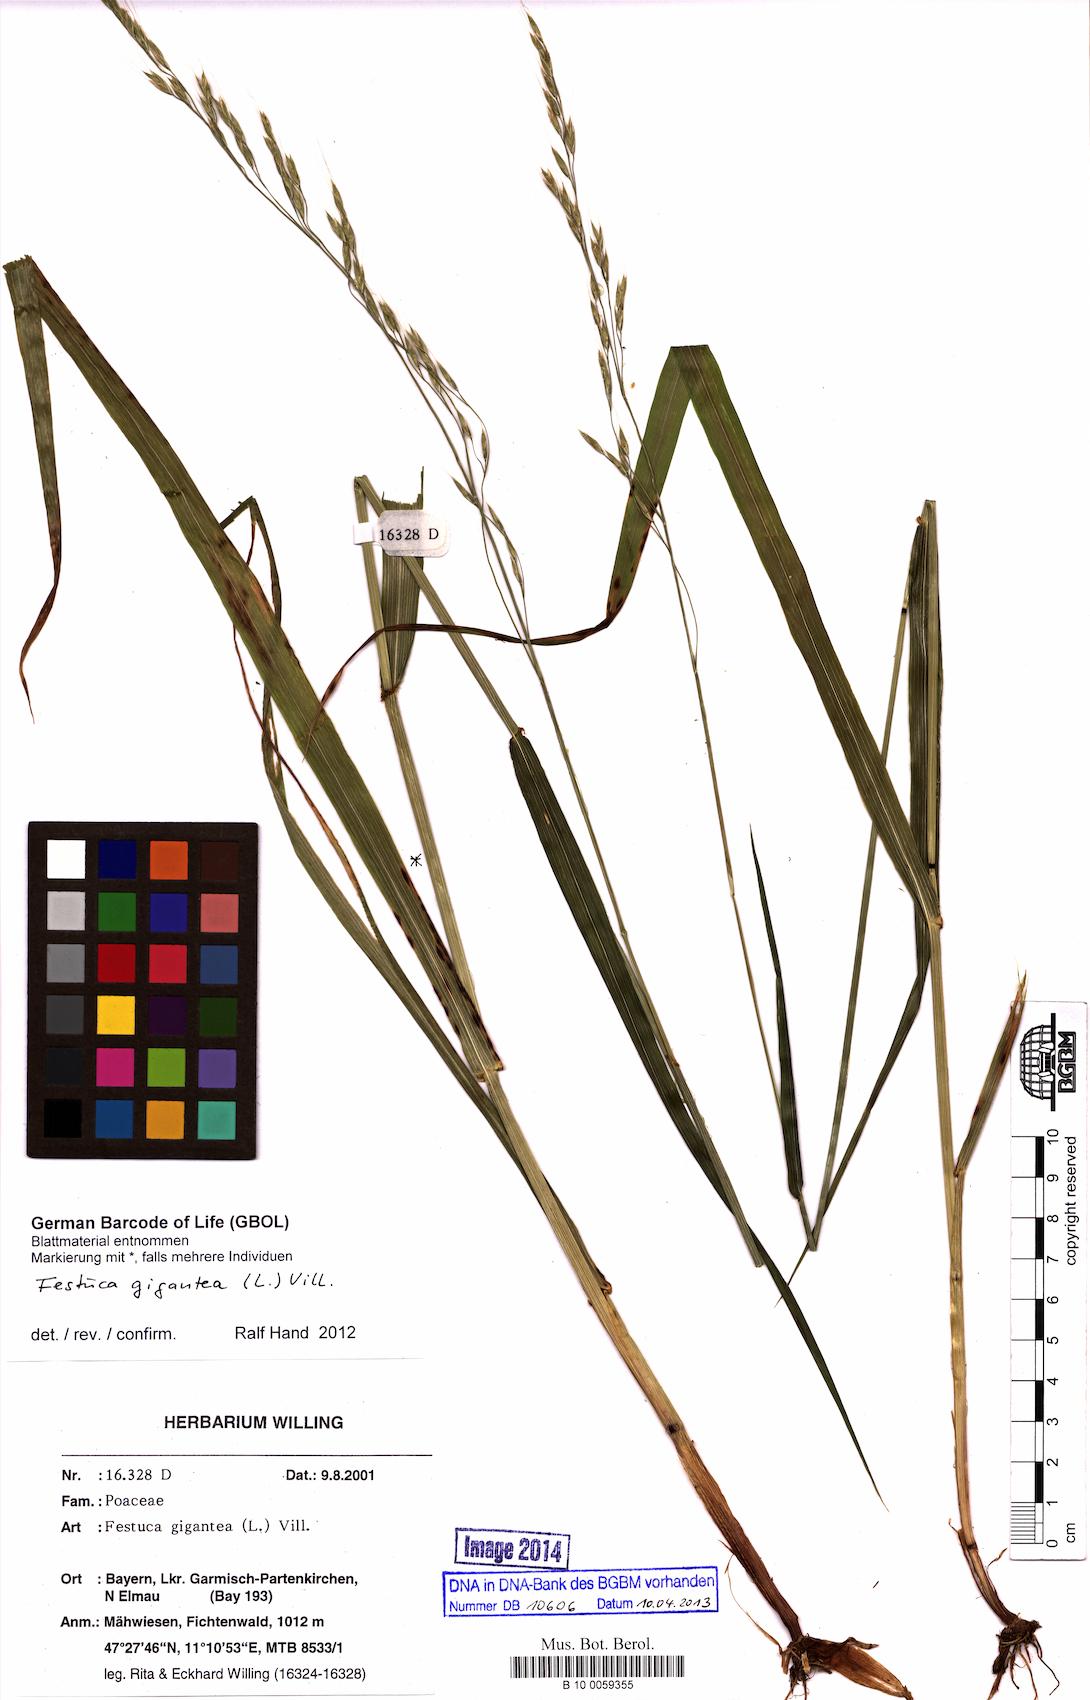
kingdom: Plantae
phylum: Tracheophyta
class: Liliopsida
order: Poales
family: Poaceae
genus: Lolium
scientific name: Lolium giganteum
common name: Giant fescue
